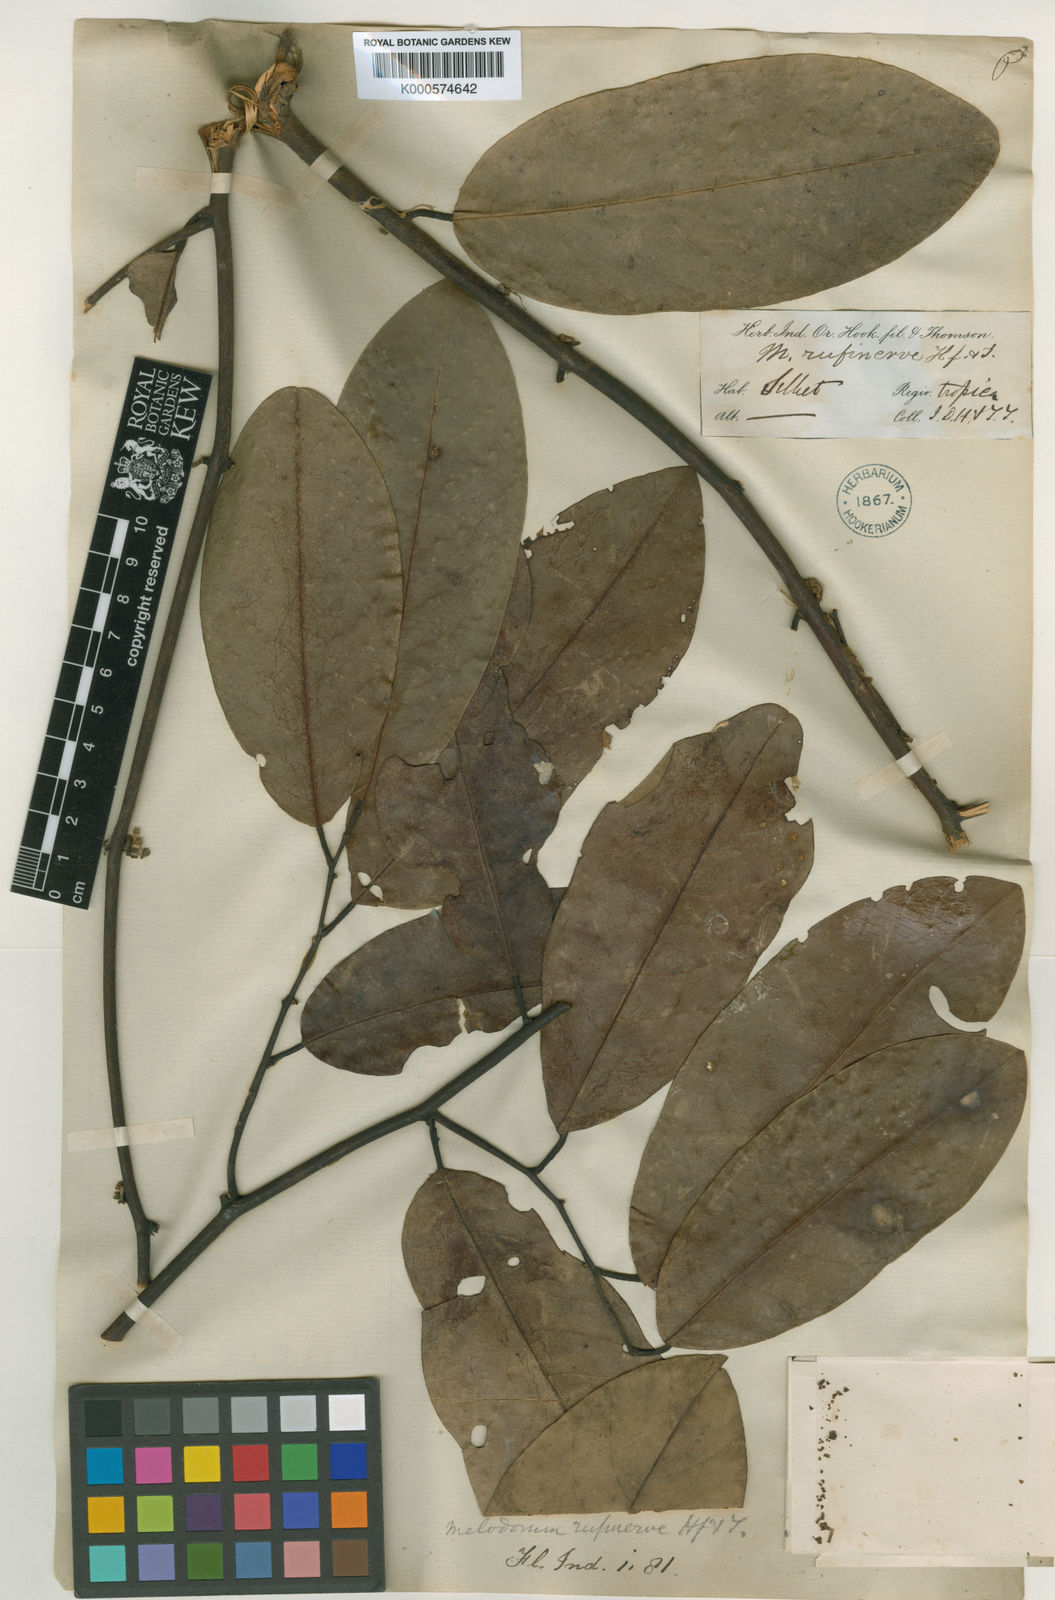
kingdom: Plantae
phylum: Tracheophyta
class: Magnoliopsida
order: Magnoliales
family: Annonaceae
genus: Fissistigma
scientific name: Fissistigma rufinerve
